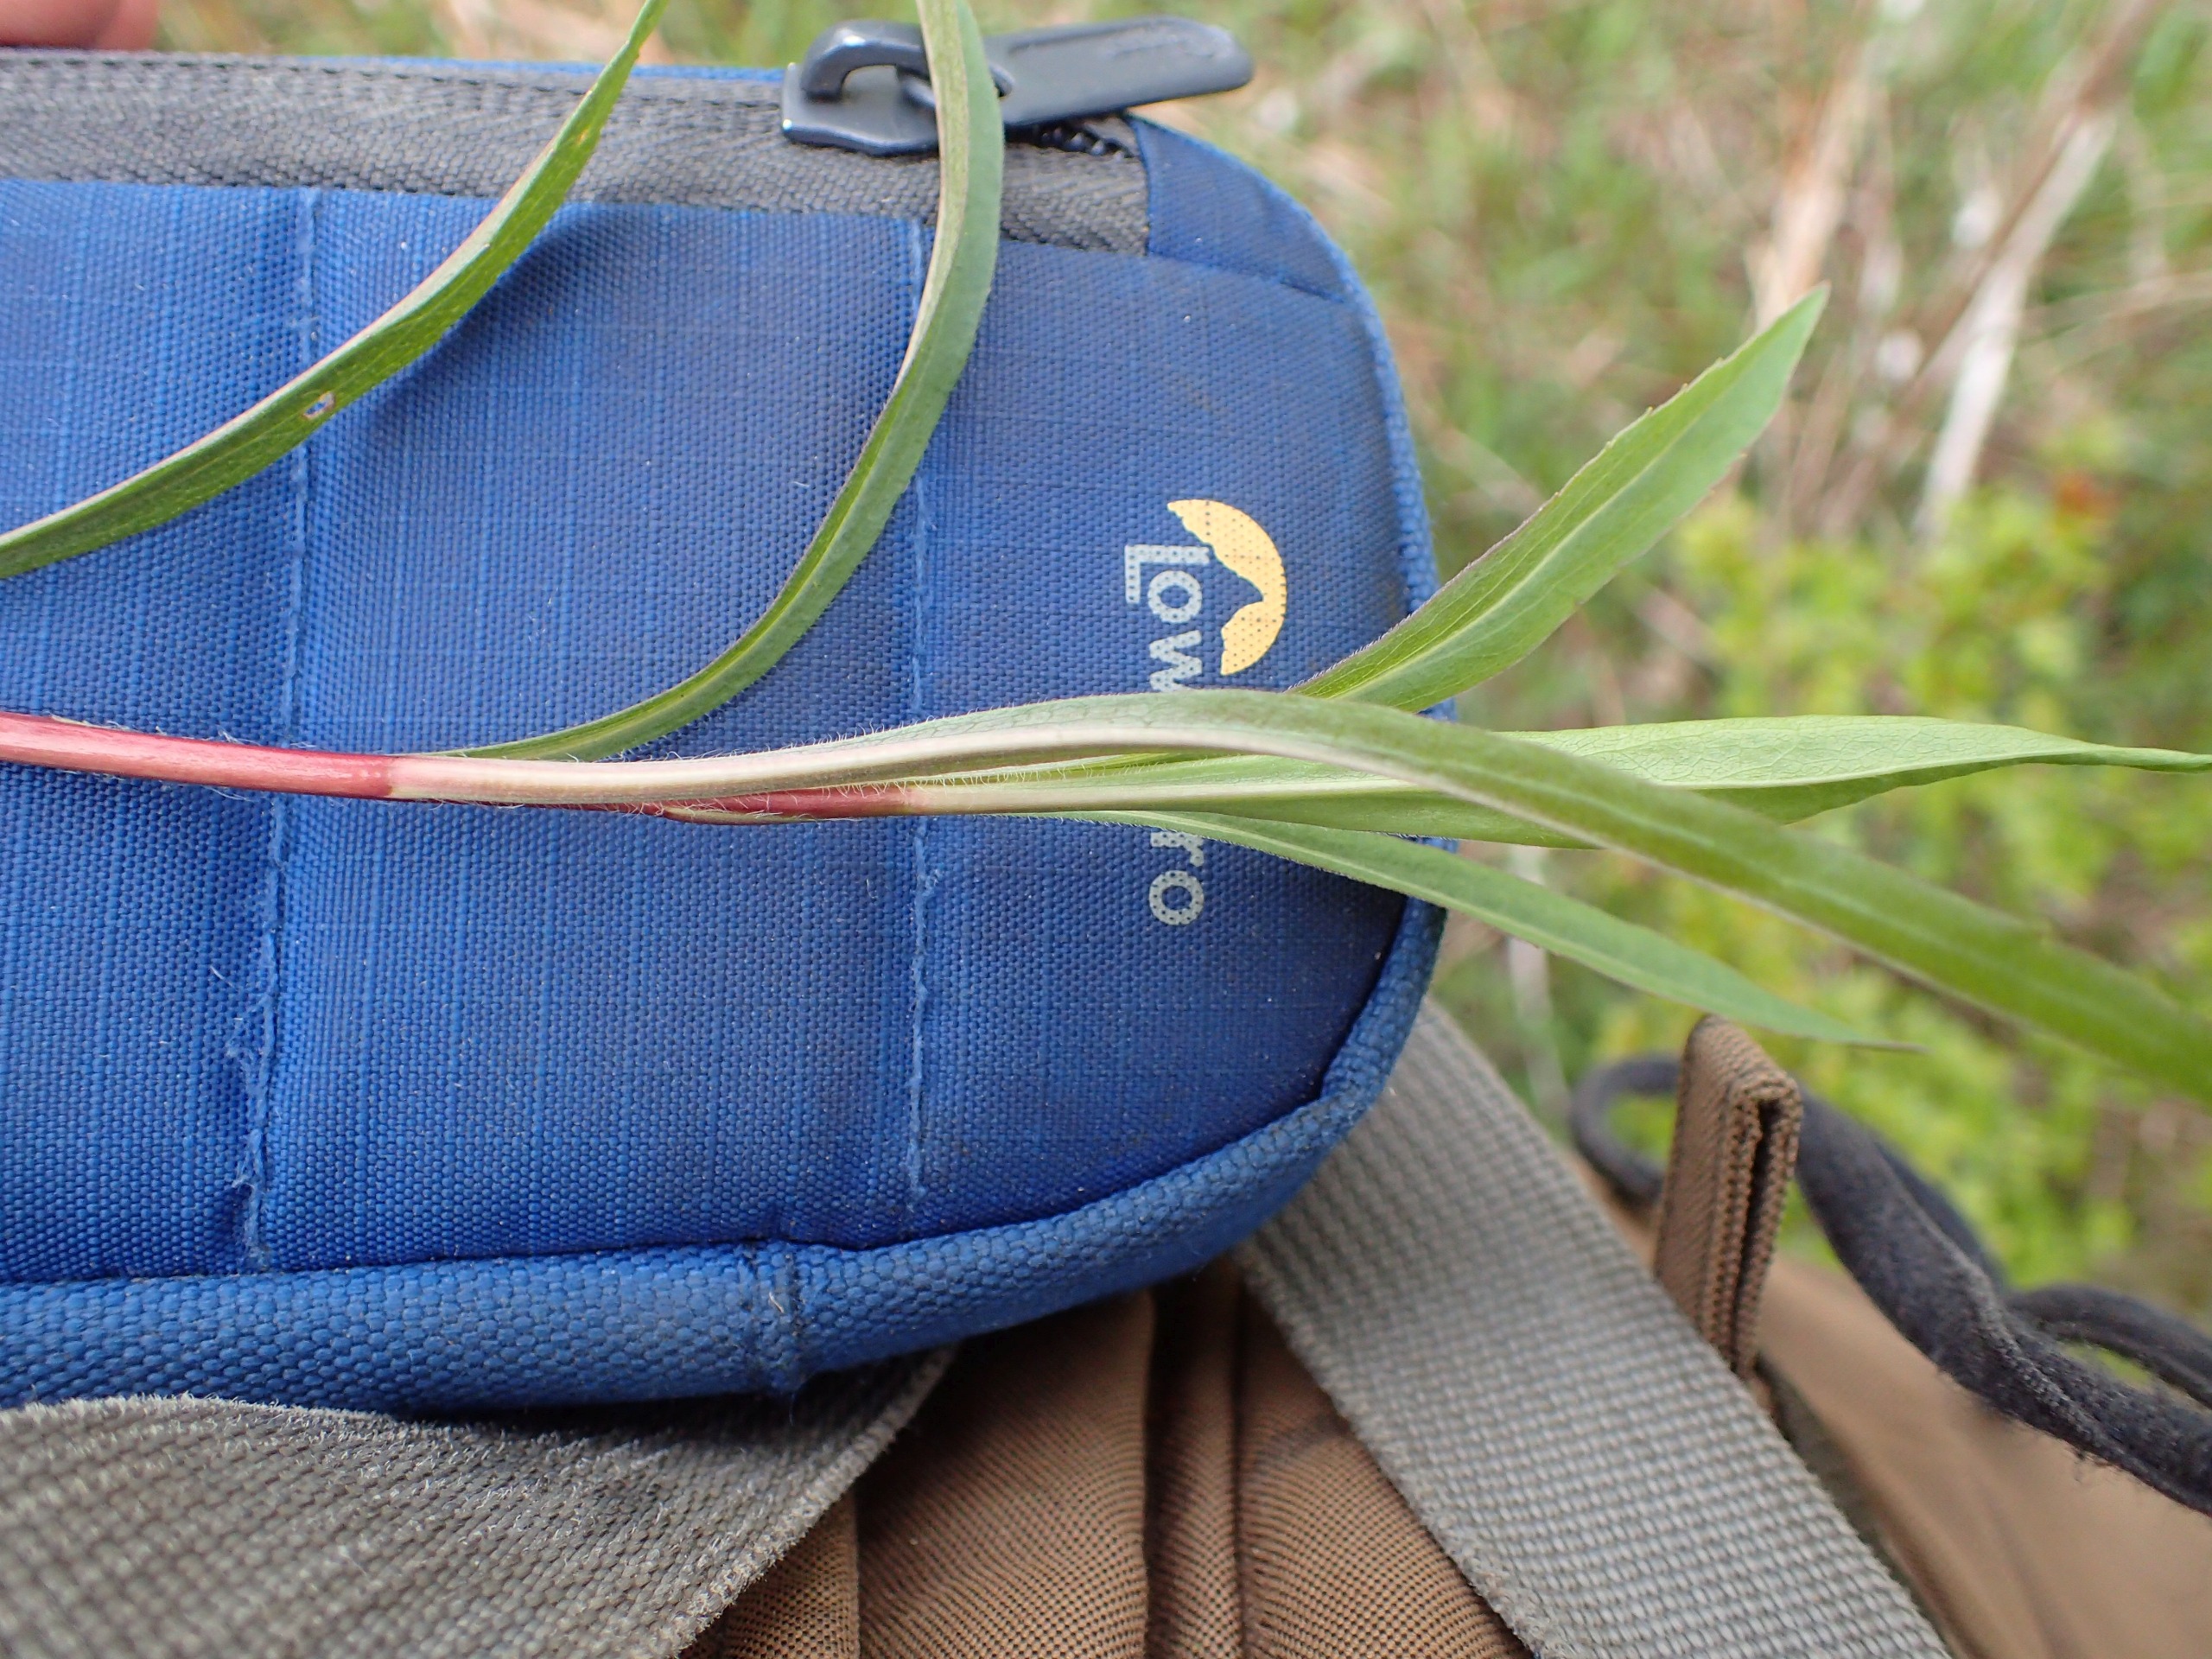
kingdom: Plantae
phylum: Tracheophyta
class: Magnoliopsida
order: Asterales
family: Asteraceae
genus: Solidago
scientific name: Solidago gigantea
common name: Sildig gyldenris
